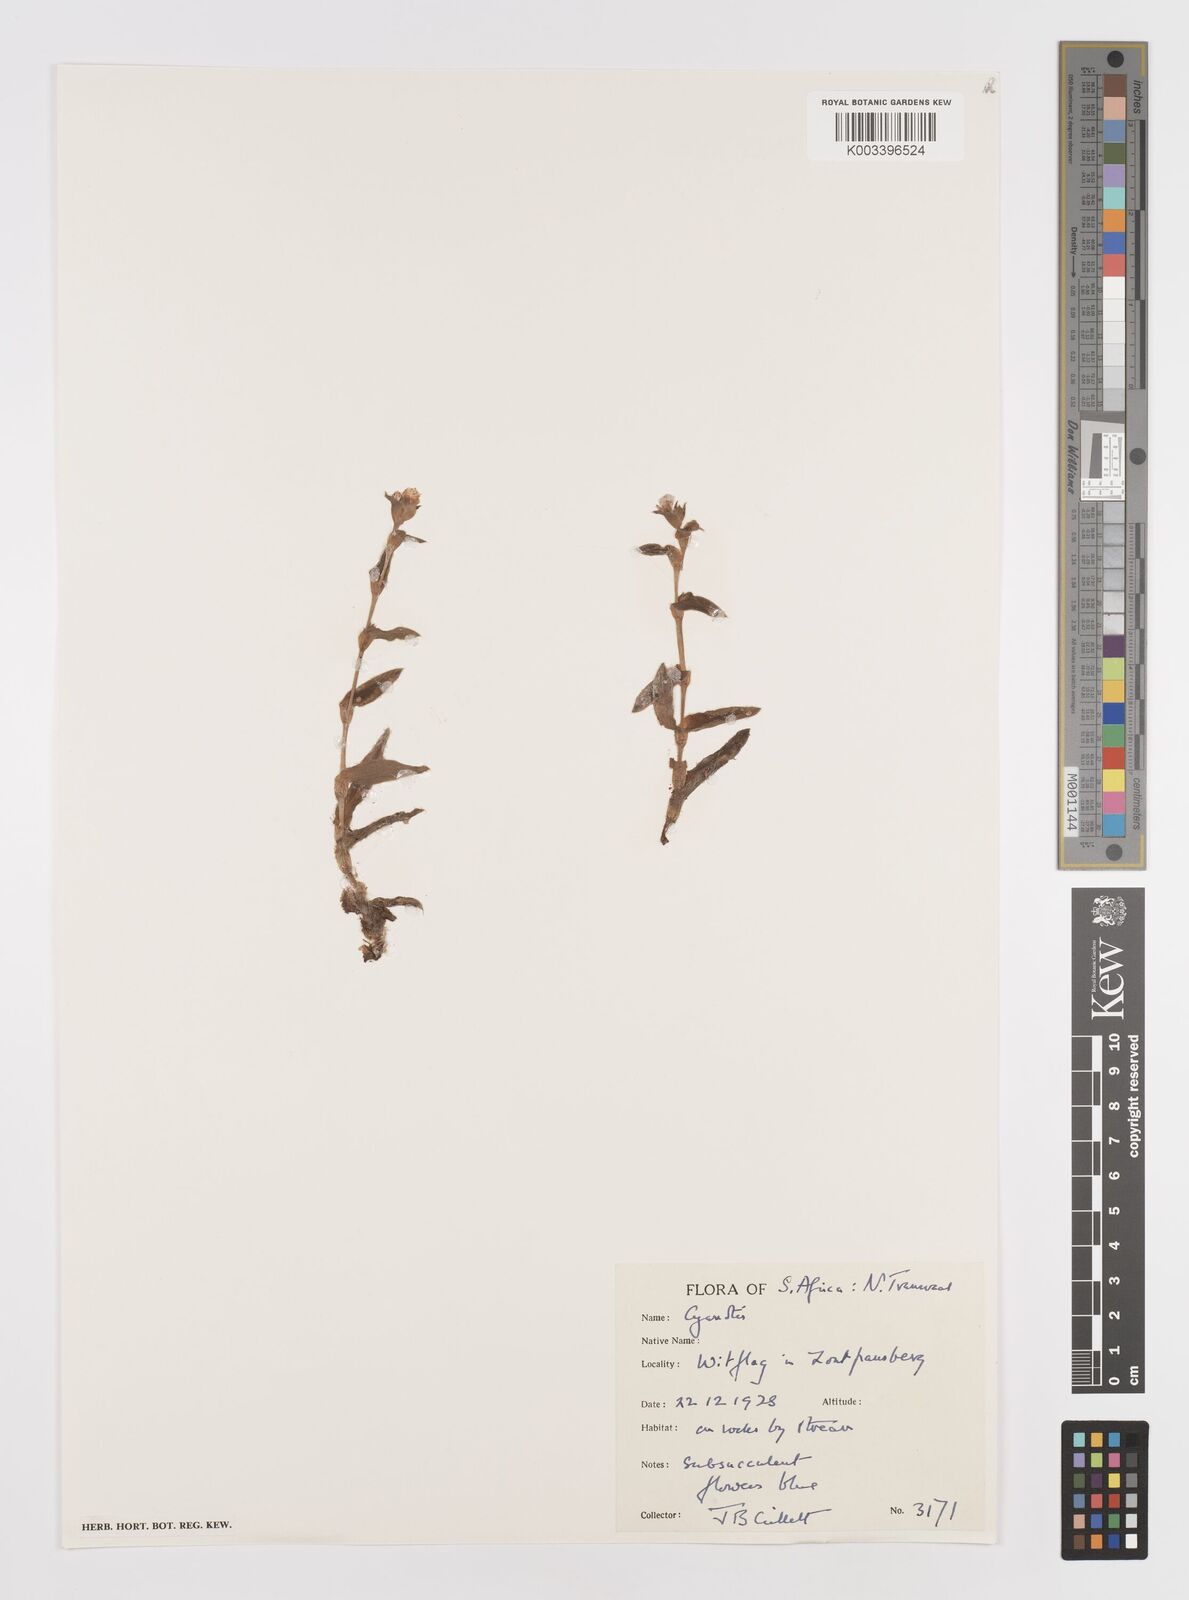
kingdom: Plantae
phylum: Tracheophyta
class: Liliopsida
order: Commelinales
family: Commelinaceae
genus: Cyanotis
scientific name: Cyanotis lapidosa
